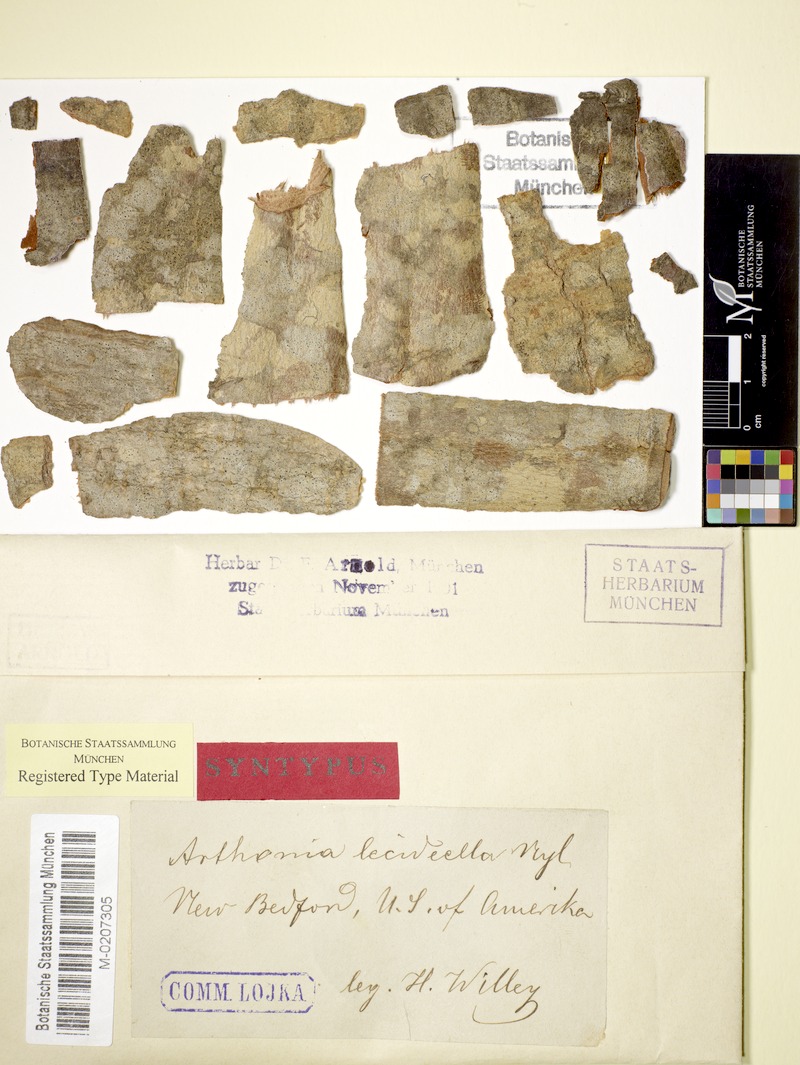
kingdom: Fungi
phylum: Ascomycota
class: Arthoniomycetes
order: Arthoniales
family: Arthoniaceae
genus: Arthonia
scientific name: Arthonia lecideella
